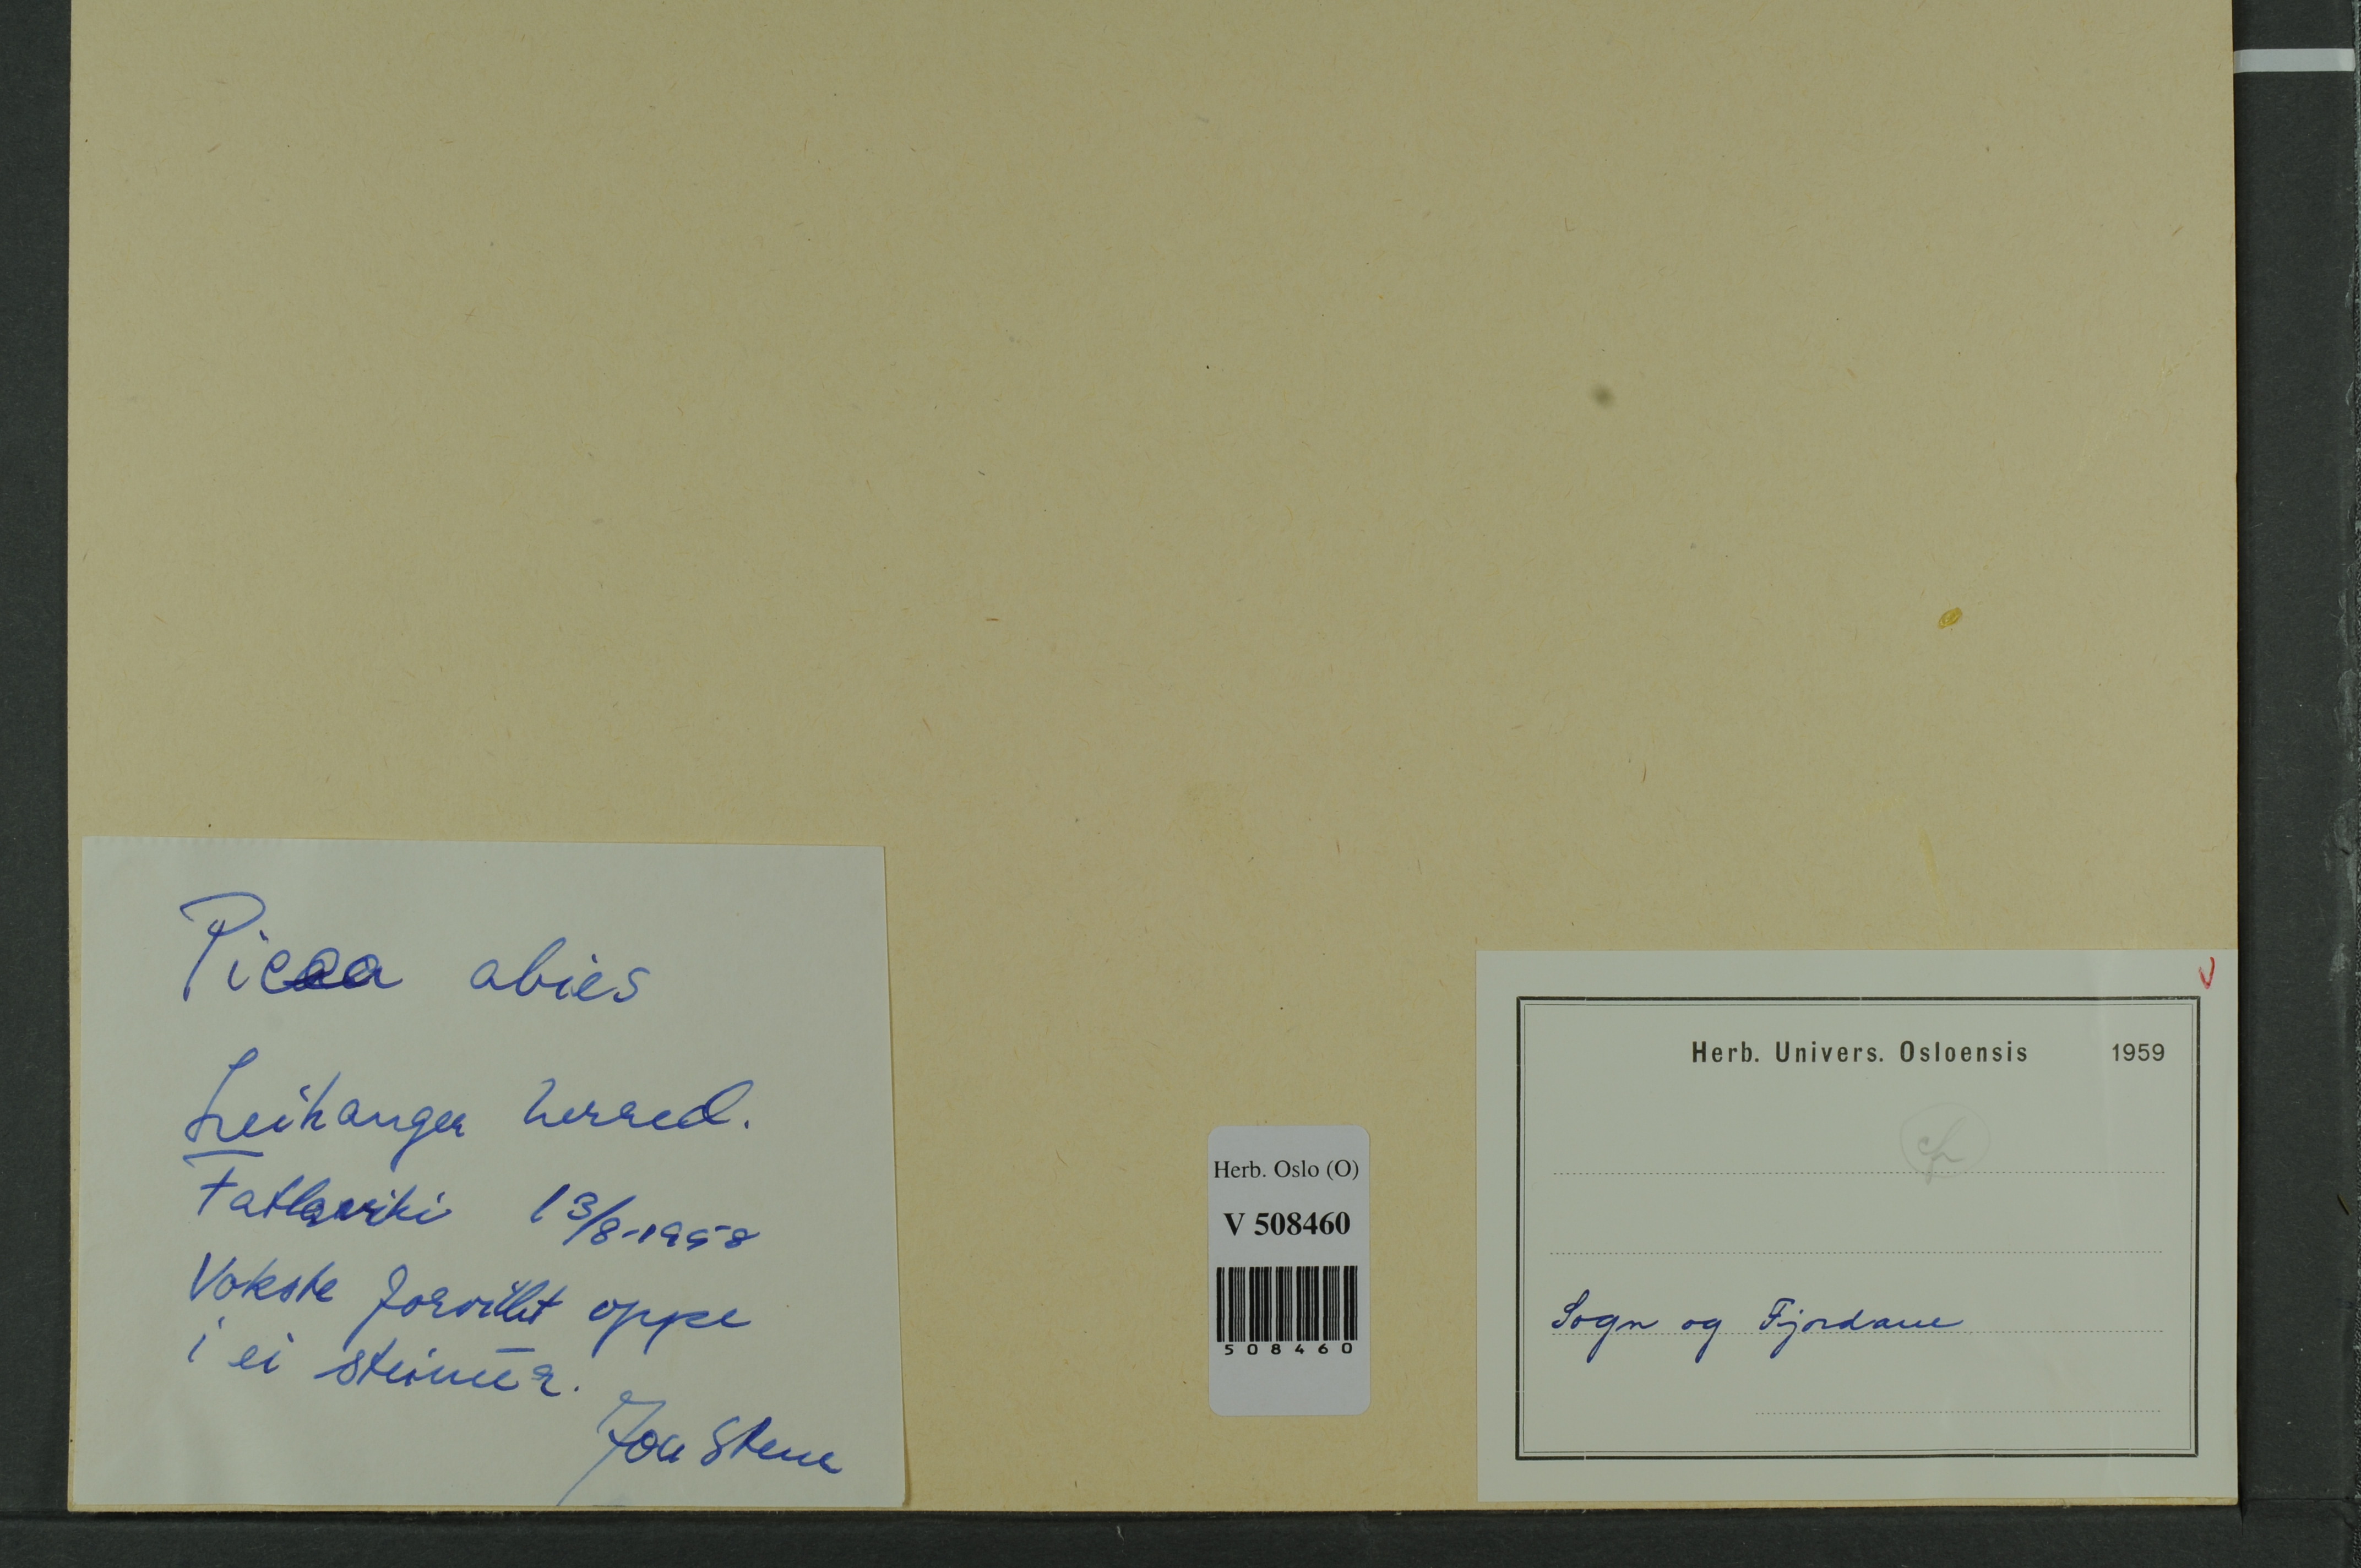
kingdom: Plantae
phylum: Tracheophyta
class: Pinopsida
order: Pinales
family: Pinaceae
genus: Picea
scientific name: Picea abies
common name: Norway spruce
